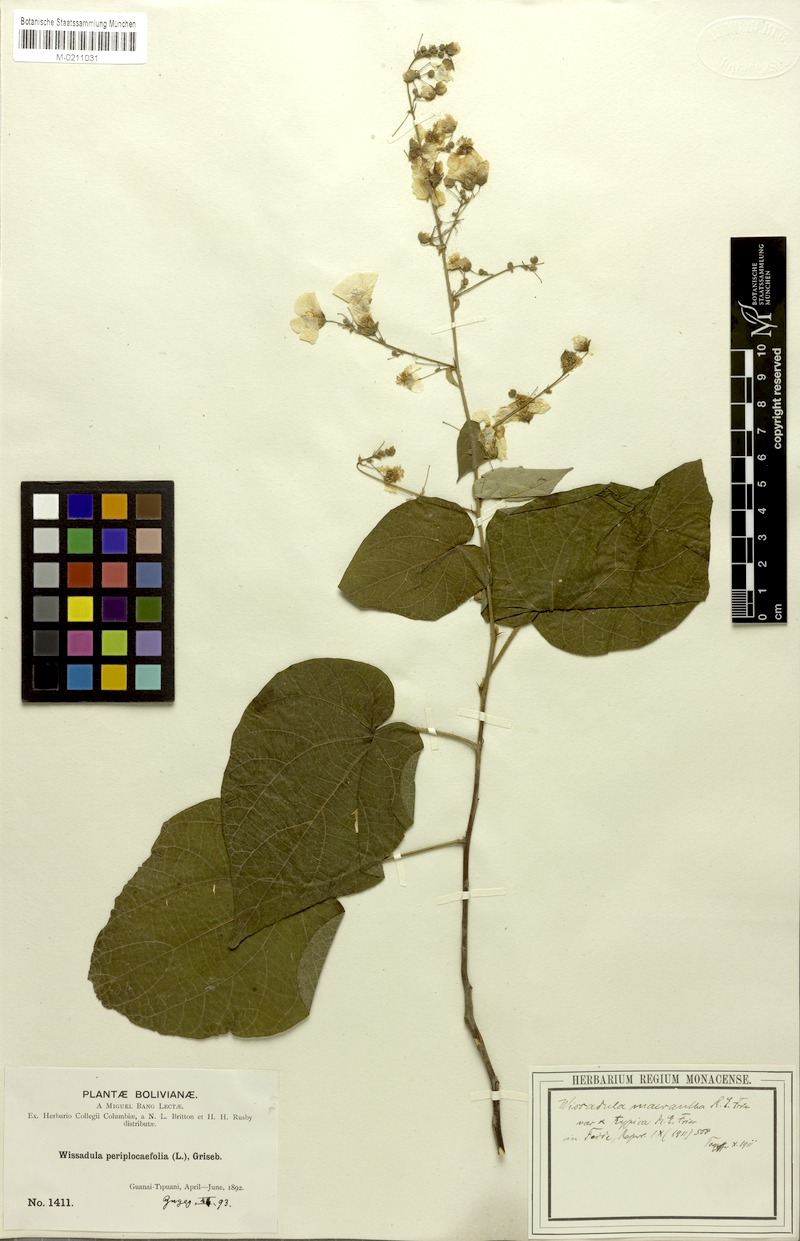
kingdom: Plantae
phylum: Tracheophyta
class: Magnoliopsida
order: Malvales
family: Malvaceae
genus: Wissadula
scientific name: Wissadula grandifolia
